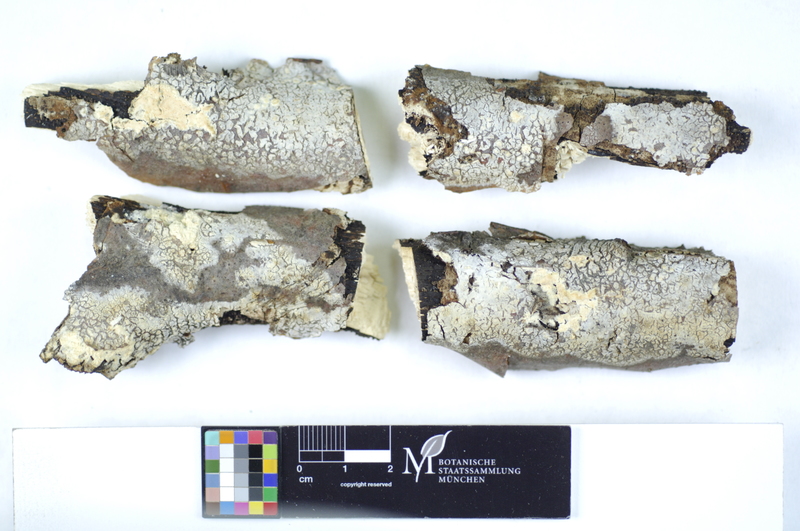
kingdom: Plantae
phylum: Tracheophyta
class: Magnoliopsida
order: Fagales
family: Fagaceae
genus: Fagus
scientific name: Fagus sylvatica
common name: Beech
